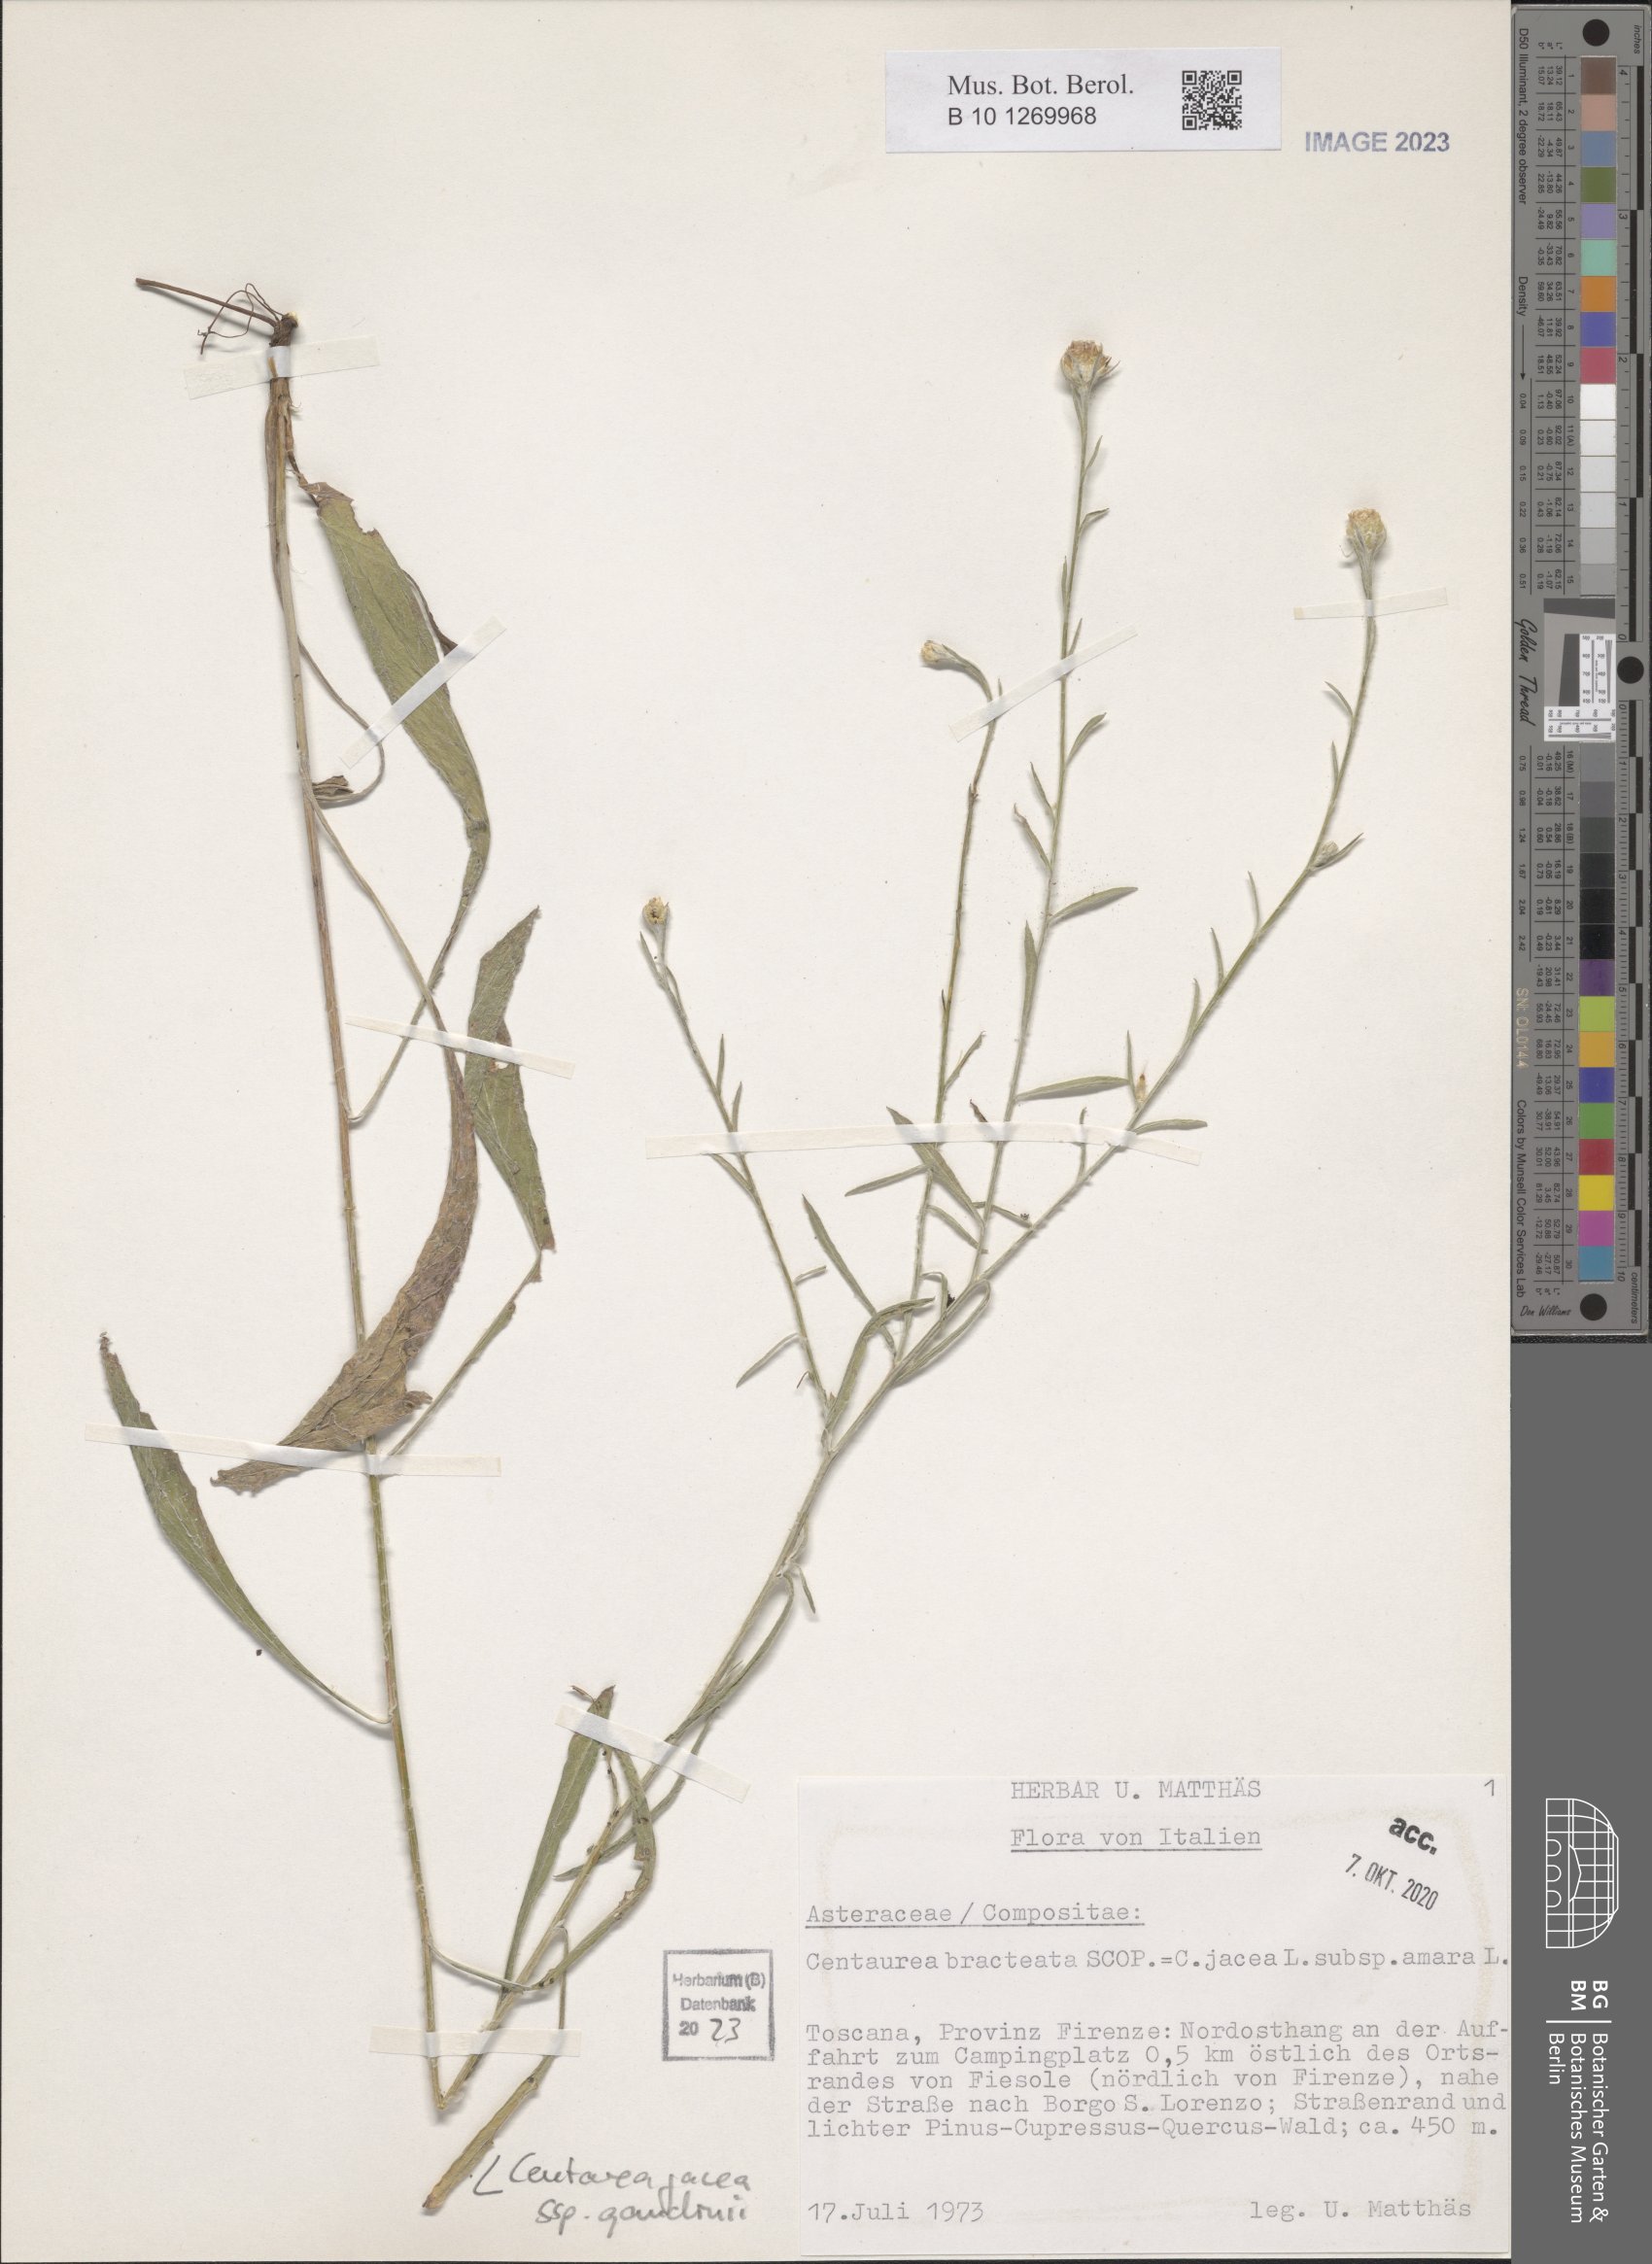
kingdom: Plantae
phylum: Tracheophyta
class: Magnoliopsida
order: Asterales
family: Asteraceae
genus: Centaurea
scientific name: Centaurea jacea
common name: Brown knapweed
